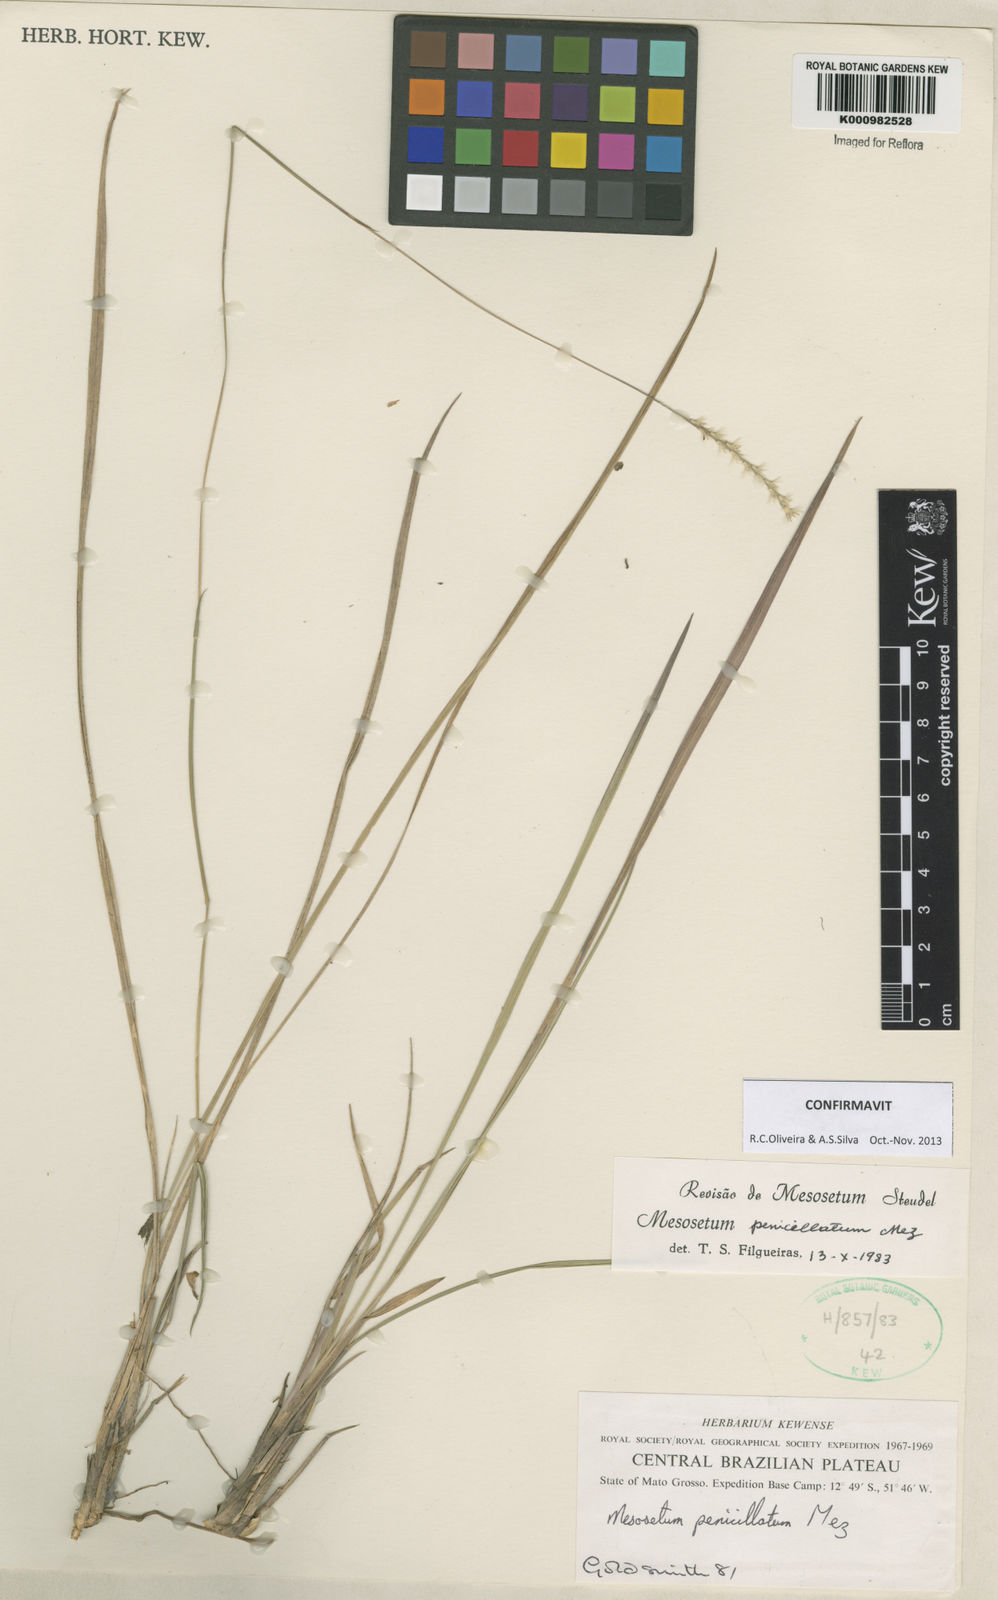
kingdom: Plantae
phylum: Tracheophyta
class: Liliopsida
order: Poales
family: Poaceae
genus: Mesosetum
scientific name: Mesosetum penicillatum
